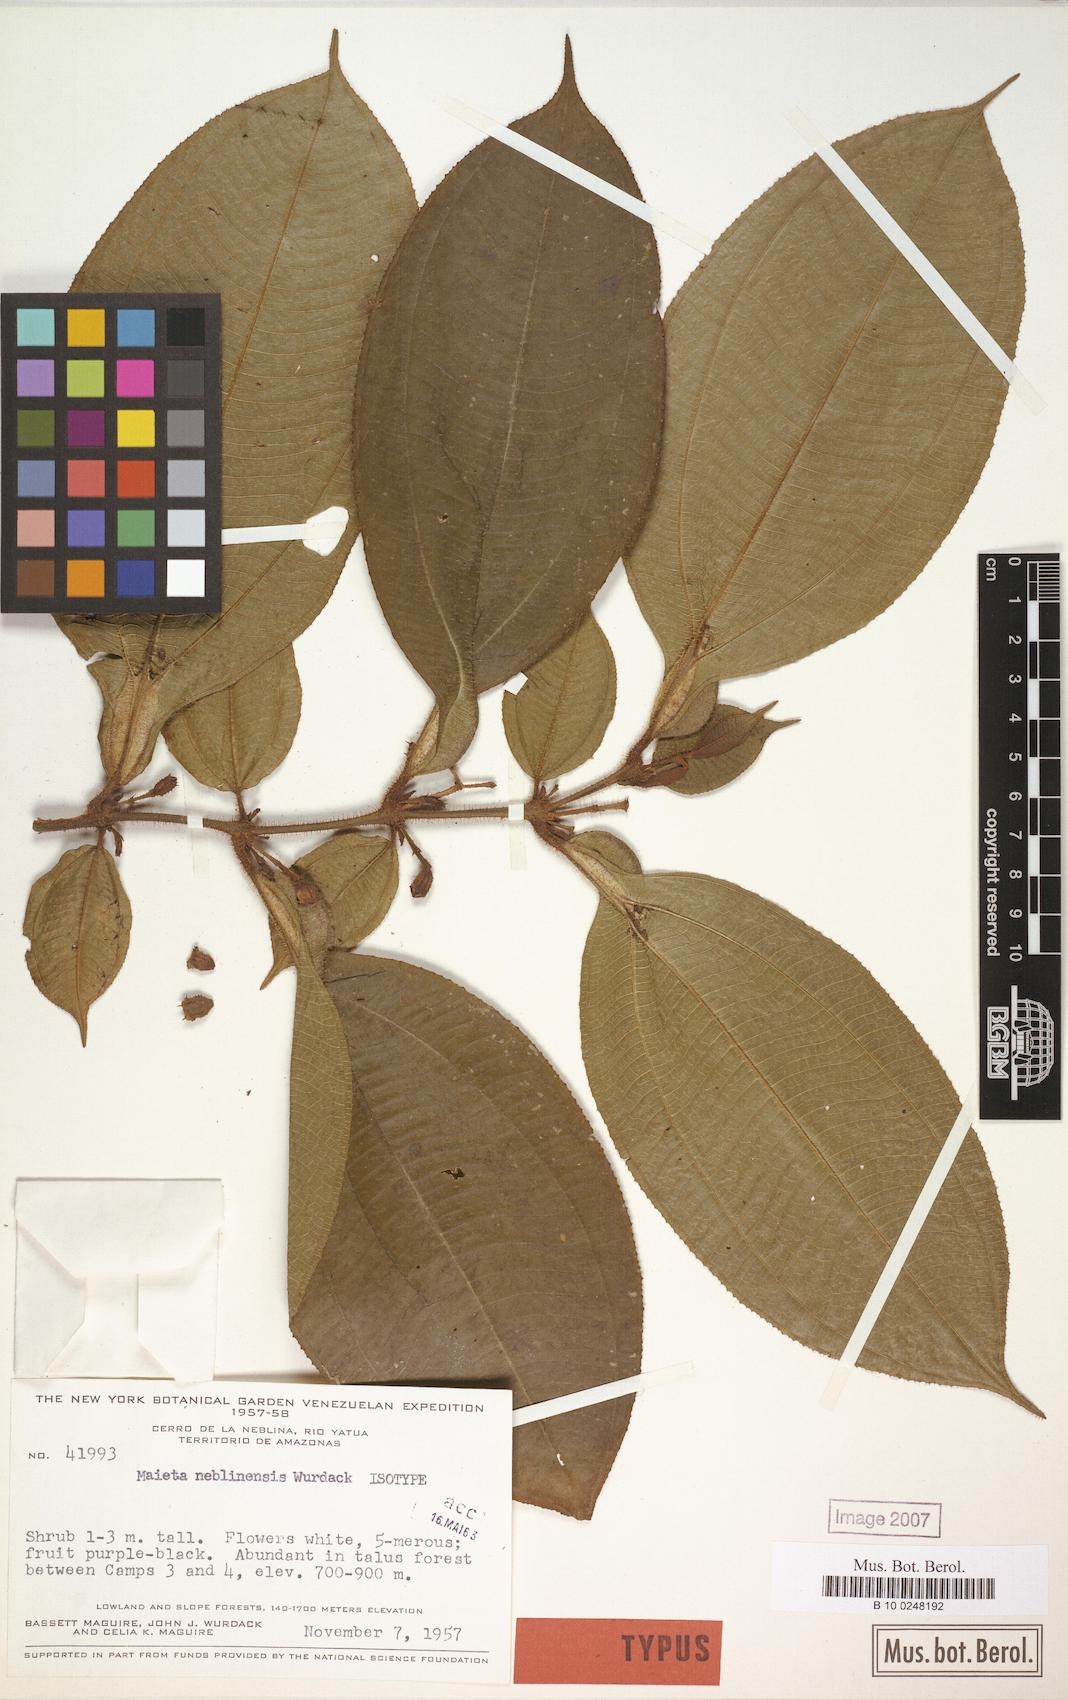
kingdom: Plantae
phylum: Tracheophyta
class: Magnoliopsida
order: Myrtales
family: Melastomataceae
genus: Miconia
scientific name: Miconia alatiflora
